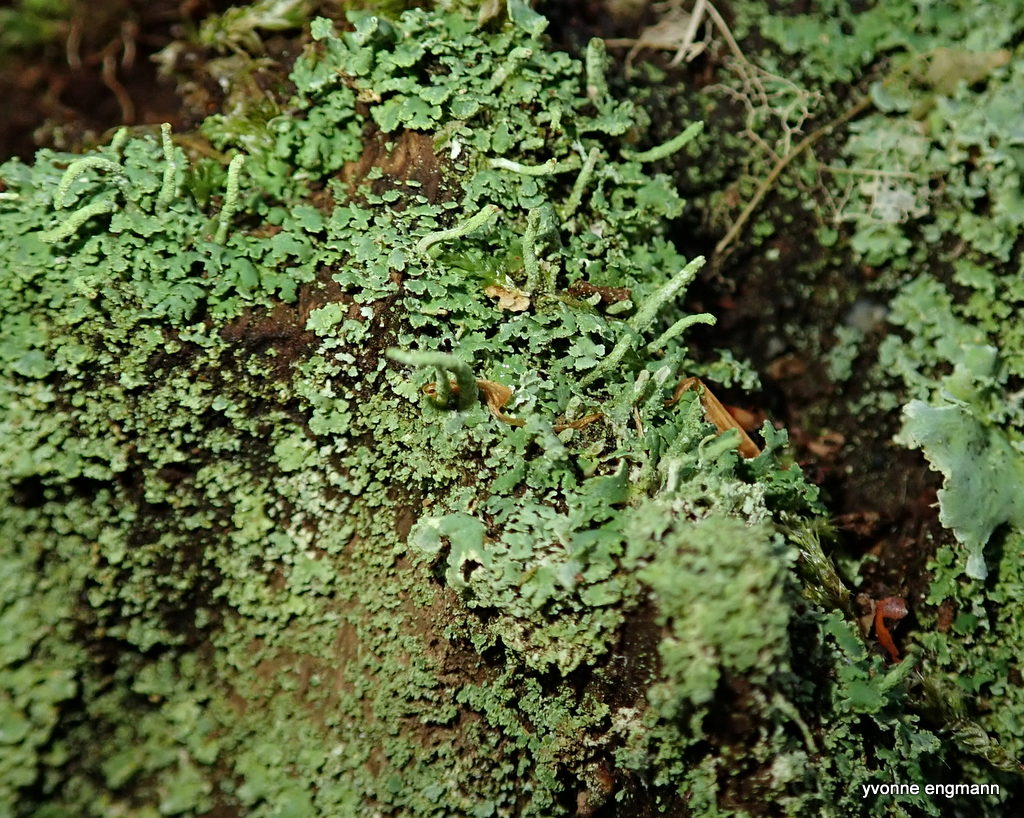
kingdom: Fungi
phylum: Ascomycota
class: Lecanoromycetes
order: Lecanorales
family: Cladoniaceae
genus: Cladonia
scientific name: Cladonia coniocraea
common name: træfods-bægerlav
